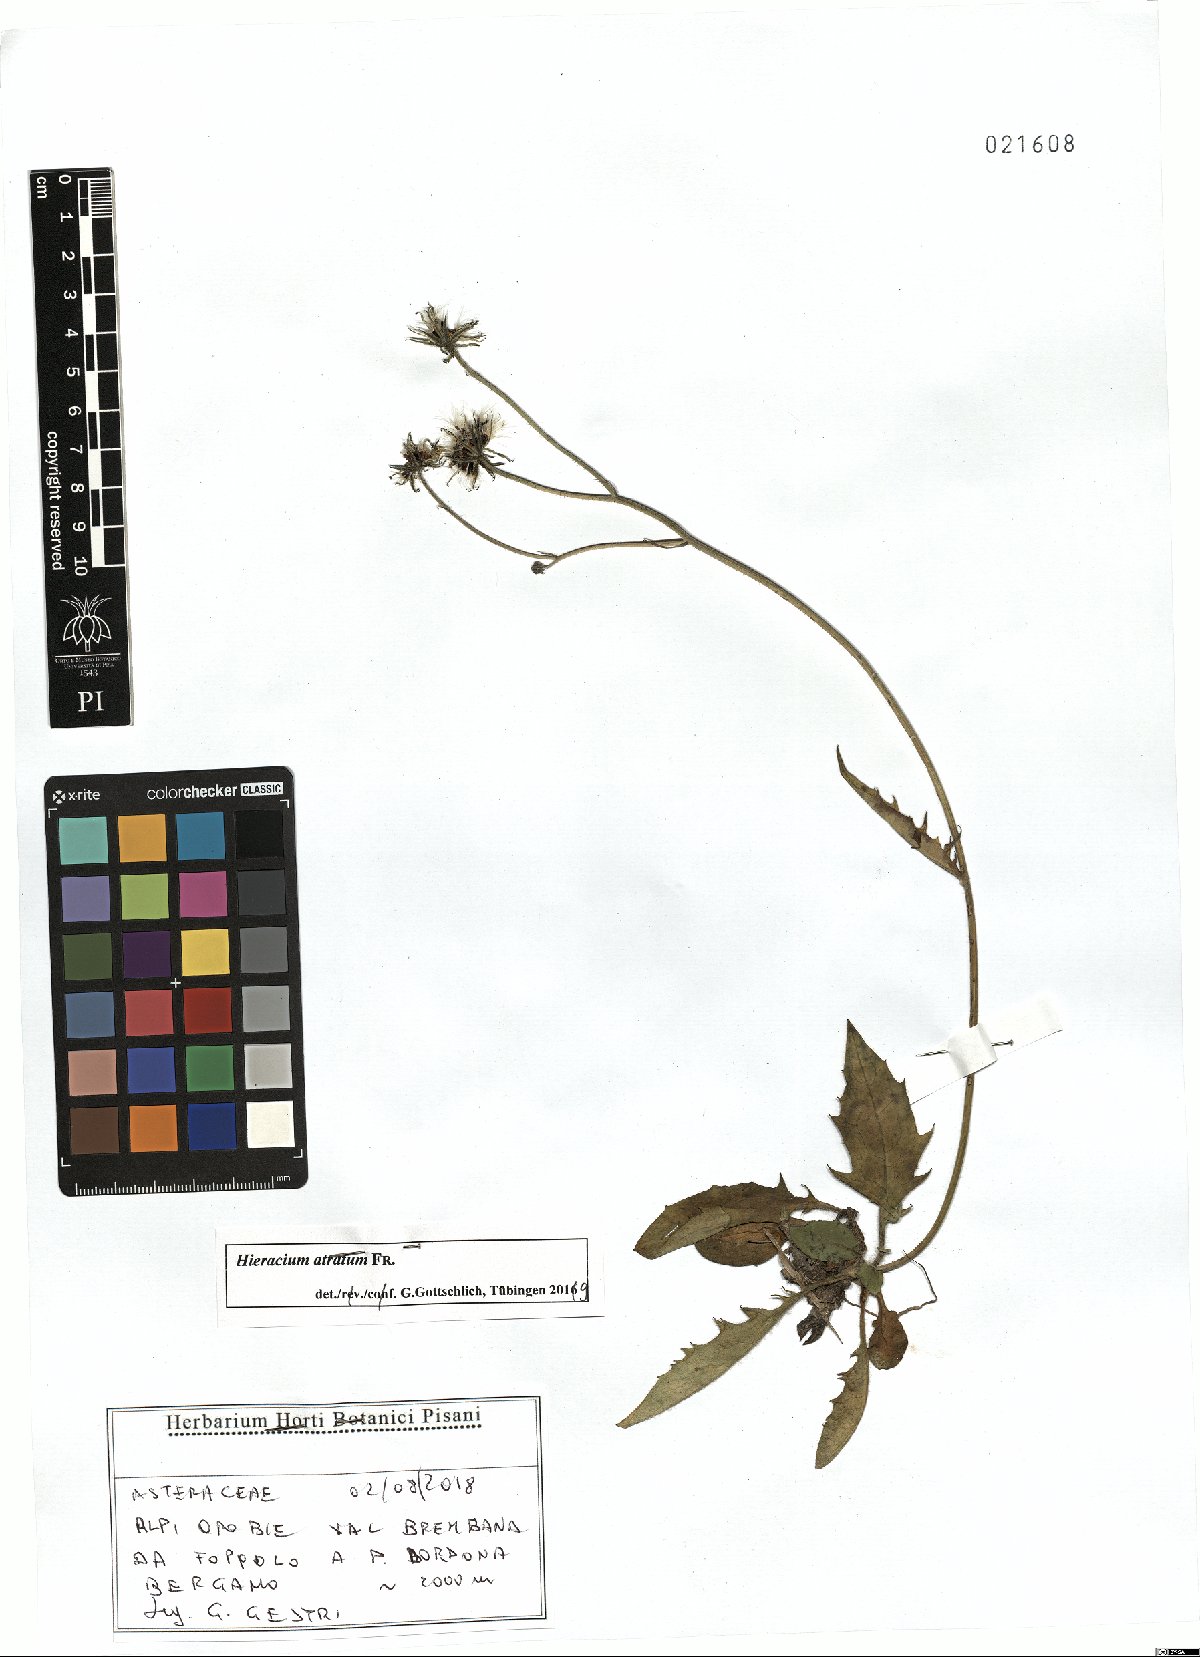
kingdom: Plantae
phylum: Tracheophyta
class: Magnoliopsida
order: Asterales
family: Asteraceae
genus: Hieracium
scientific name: Hieracium atratum
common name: Polar hawkweed
